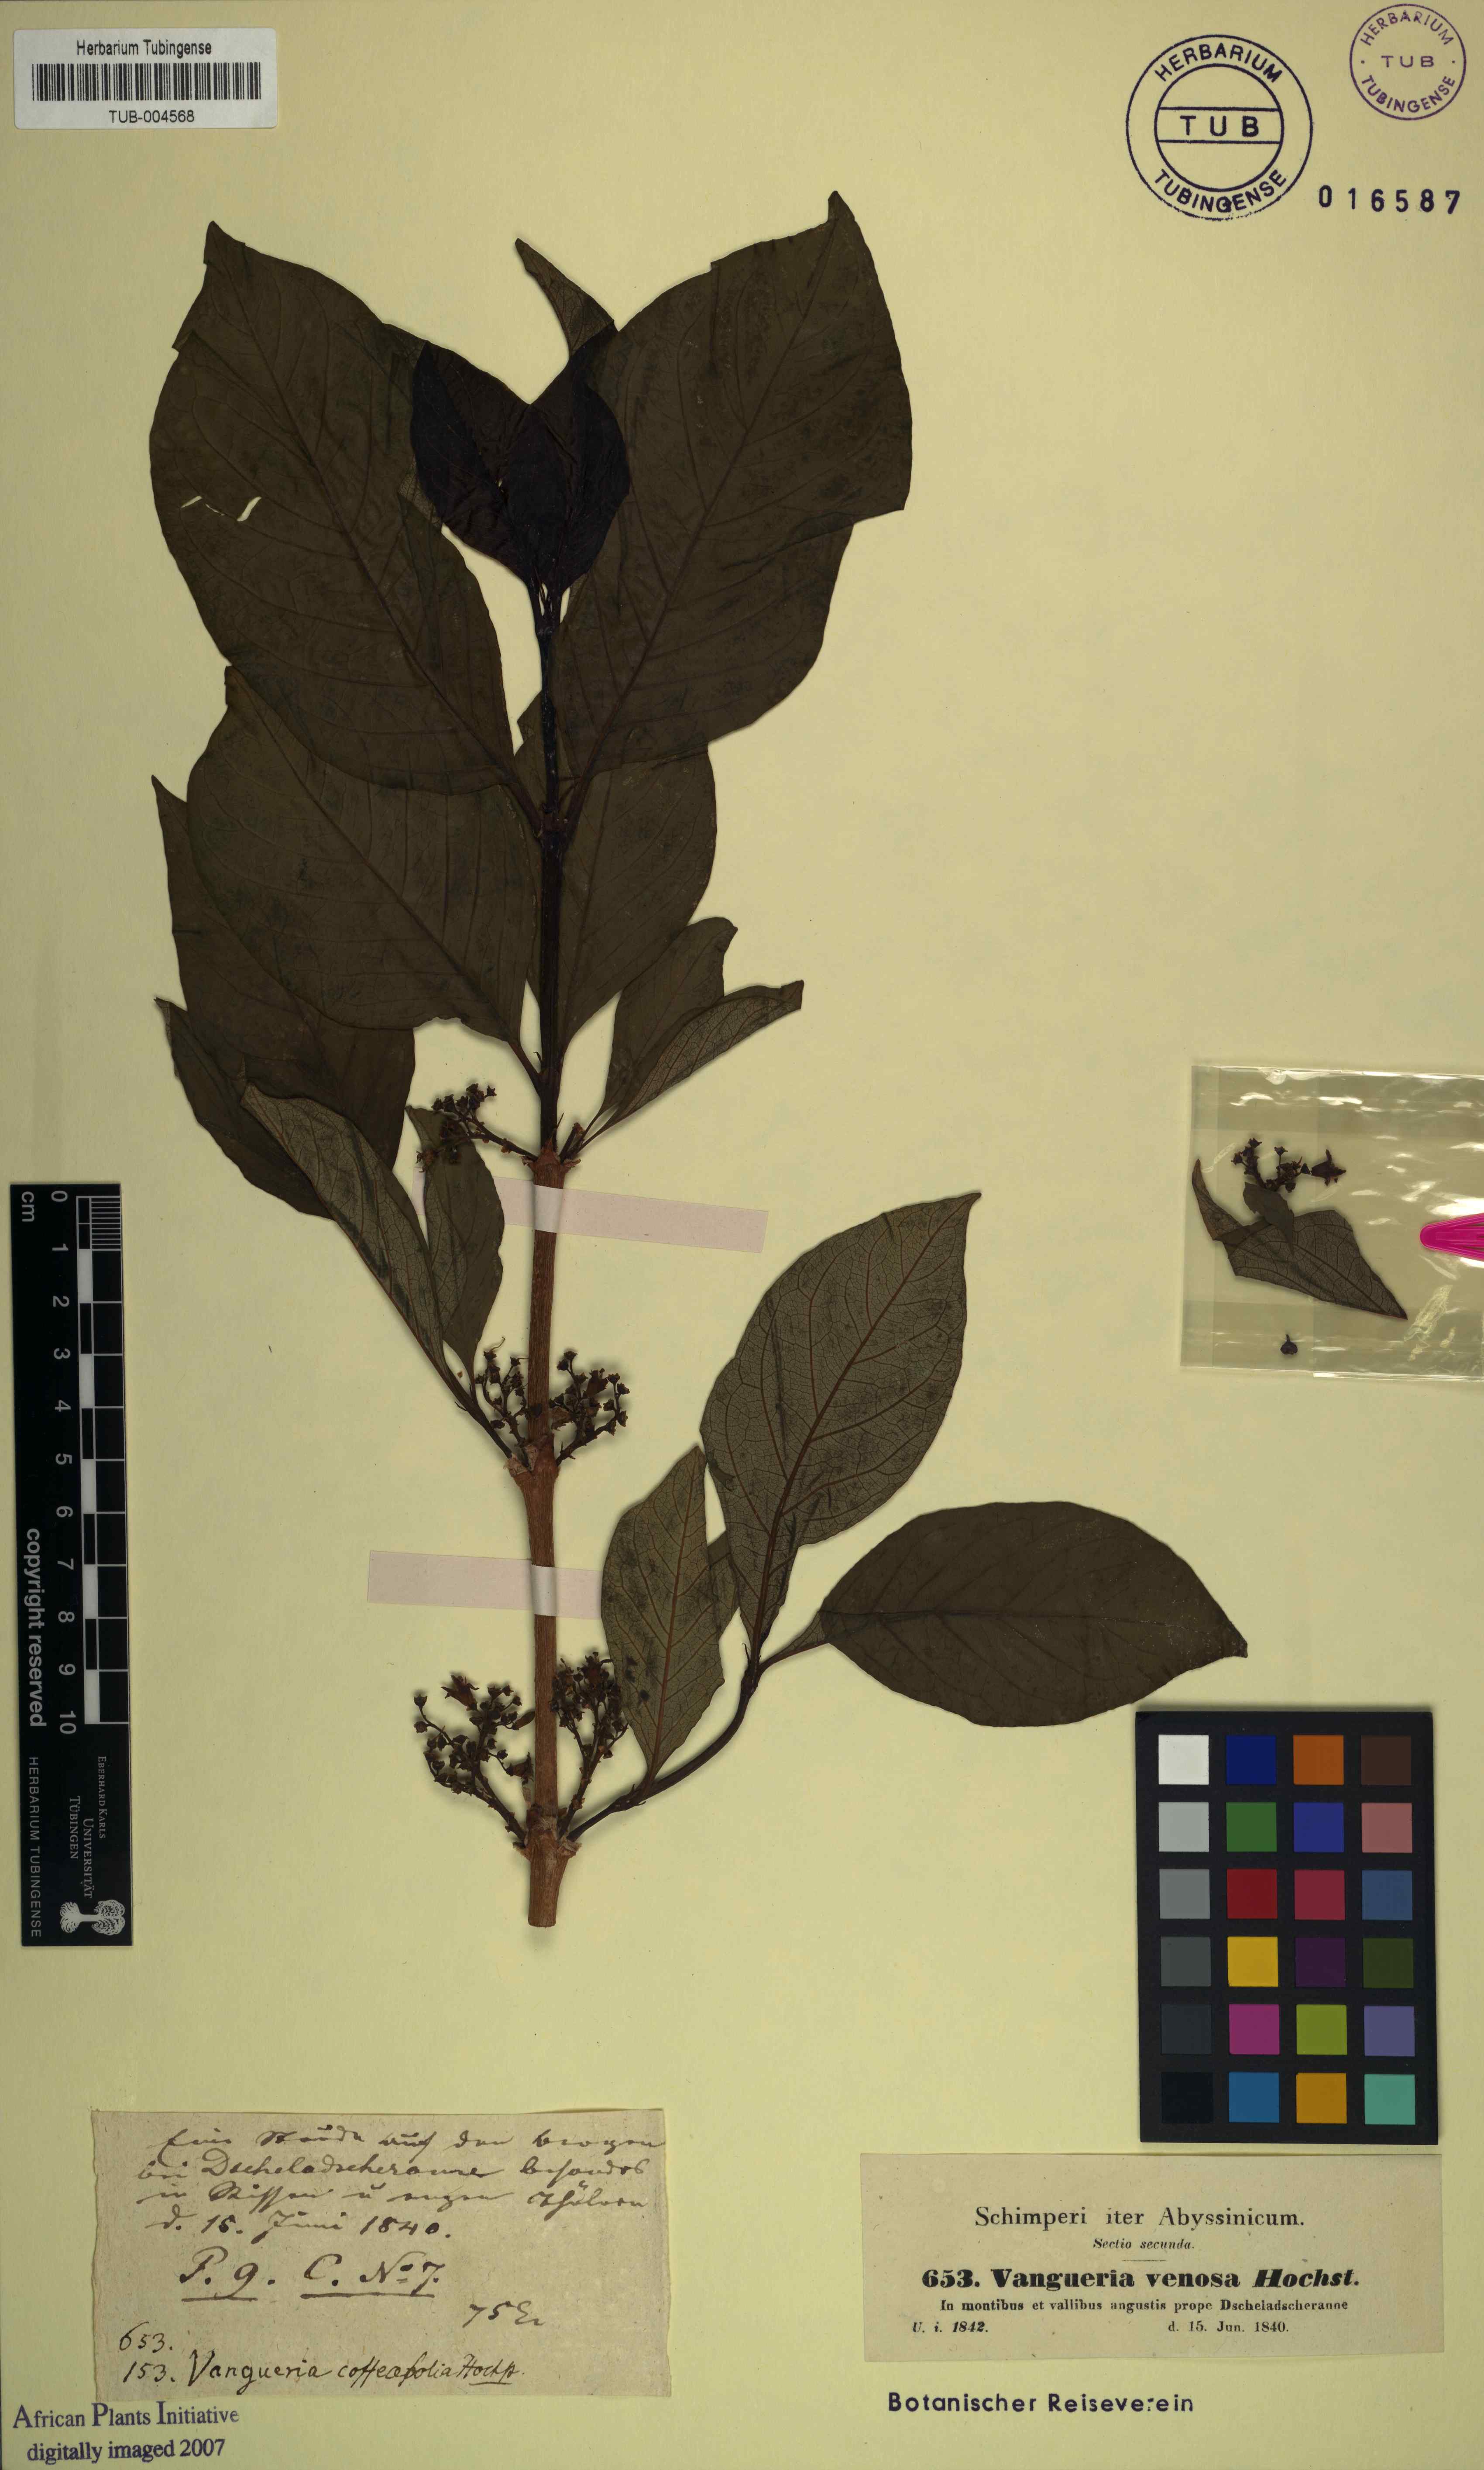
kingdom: Plantae
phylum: Tracheophyta
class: Magnoliopsida
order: Gentianales
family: Rubiaceae
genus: Vangueria
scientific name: Vangueria madagascariensis
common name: Smooth wild-medlar
